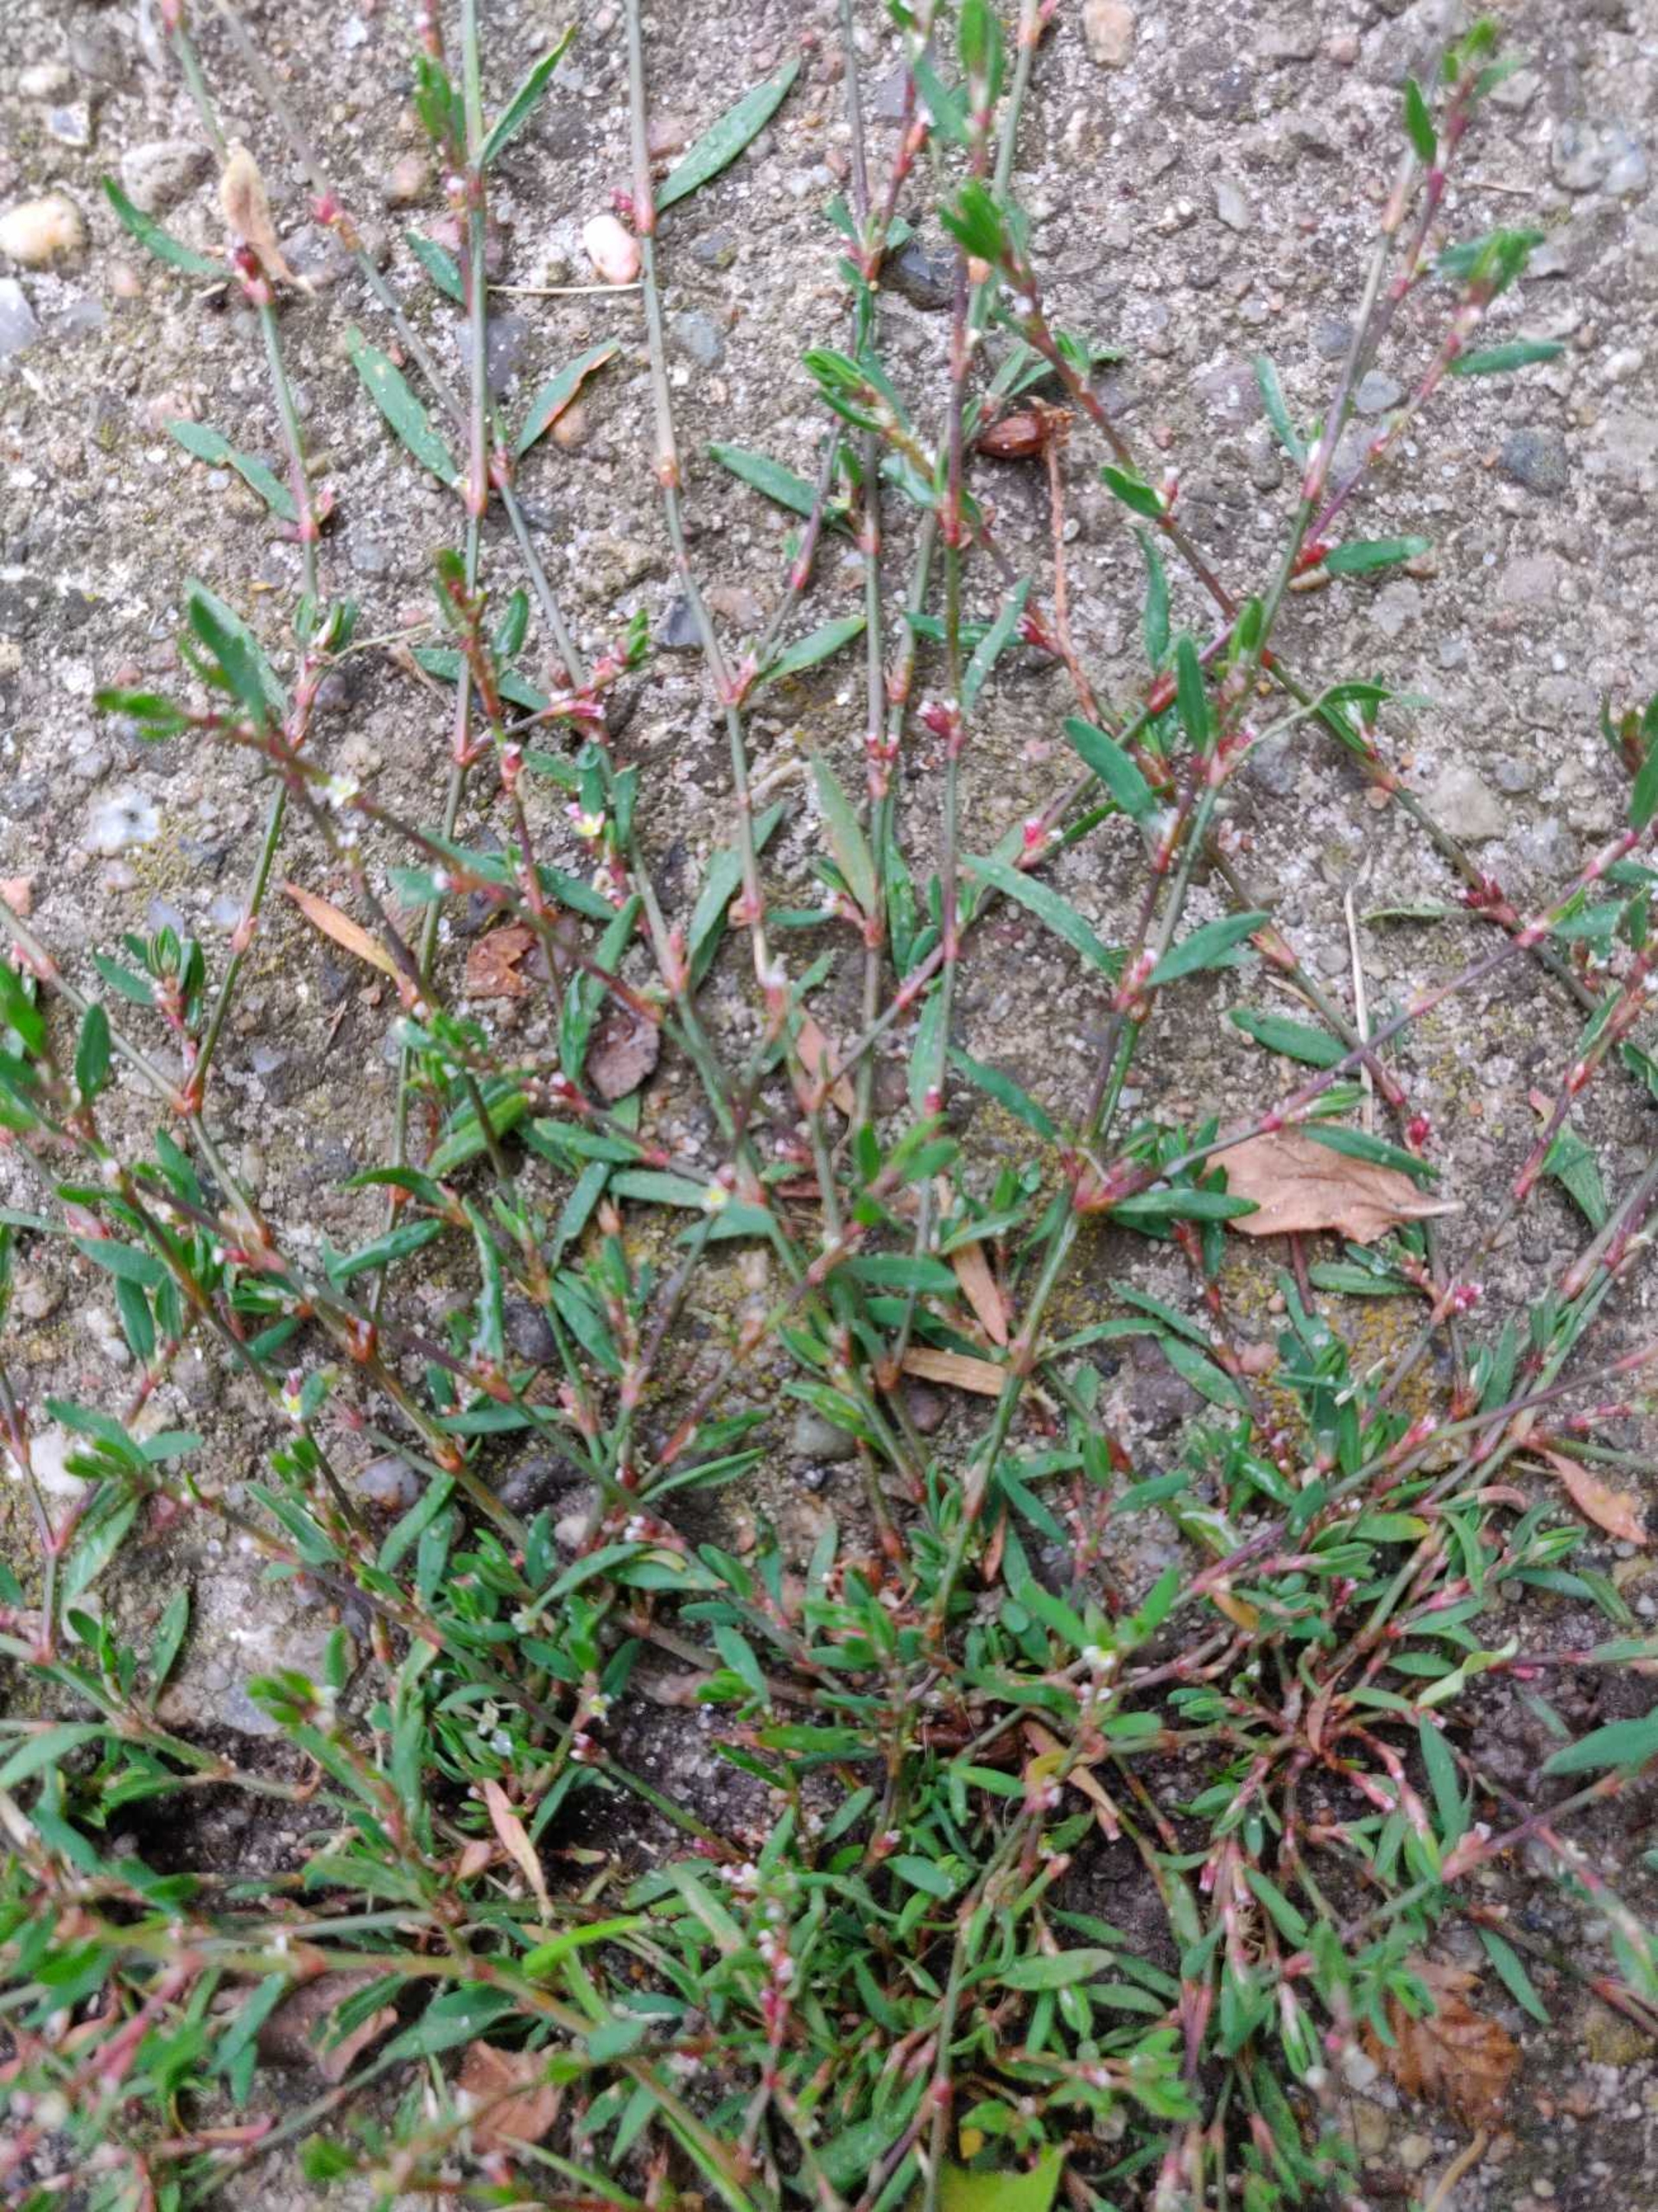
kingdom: Plantae
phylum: Tracheophyta
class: Magnoliopsida
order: Caryophyllales
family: Polygonaceae
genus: Polygonum
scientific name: Polygonum aviculare
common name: Vej-pileurt
